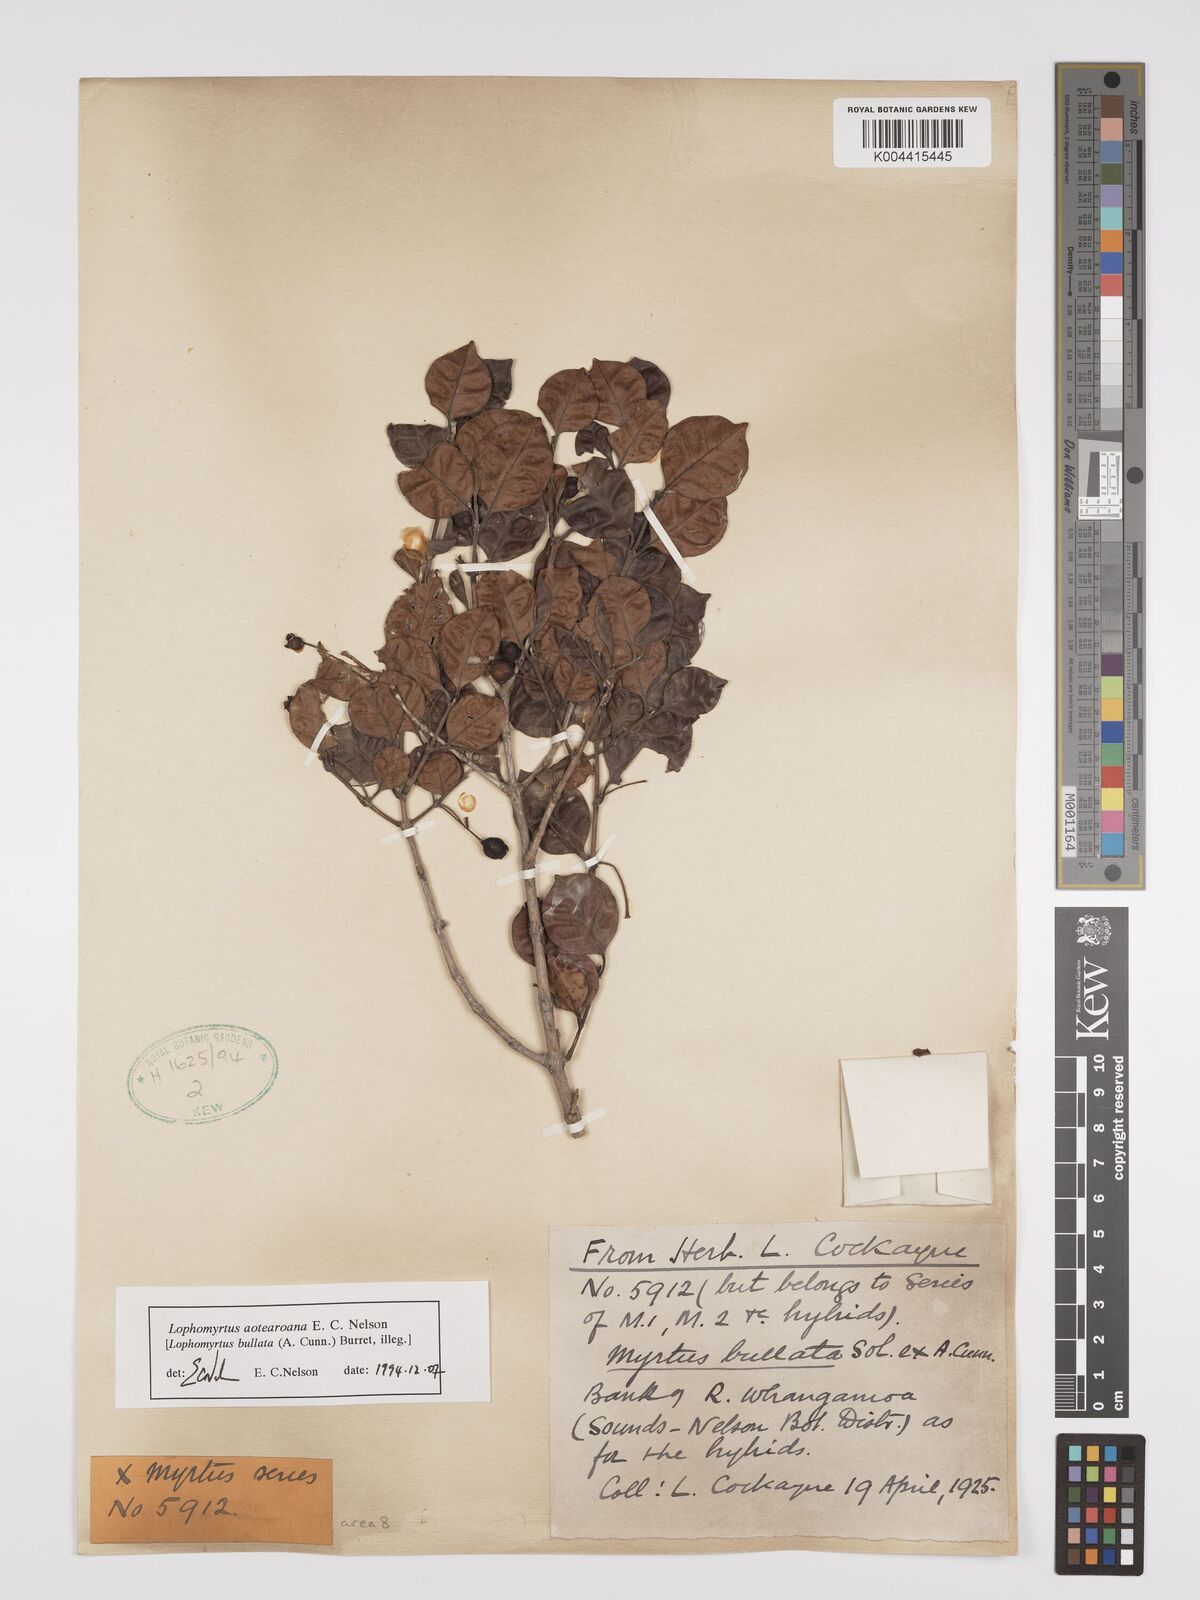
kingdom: Plantae
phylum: Tracheophyta
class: Magnoliopsida
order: Myrtales
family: Myrtaceae
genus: Lophomyrtus
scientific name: Lophomyrtus bullata
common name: Rama rama
